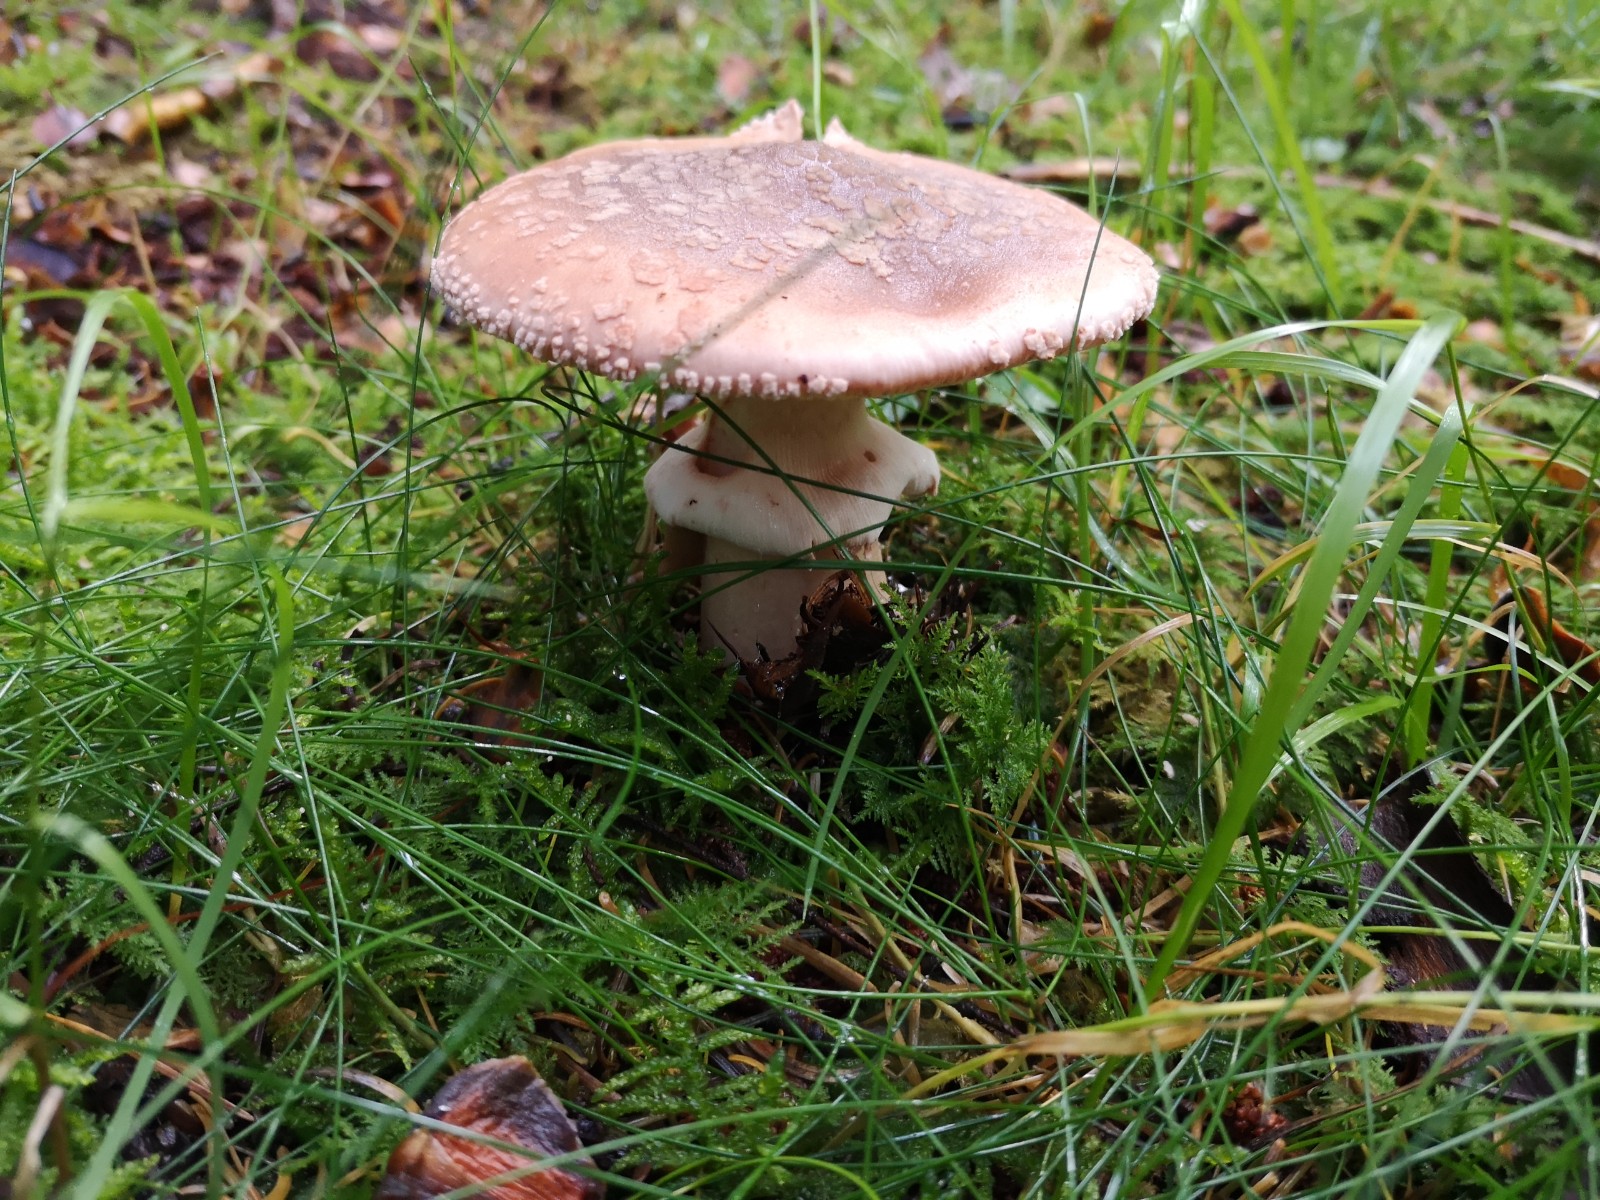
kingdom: Fungi
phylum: Basidiomycota
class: Agaricomycetes
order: Agaricales
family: Amanitaceae
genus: Amanita
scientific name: Amanita rubescens
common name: rødmende fluesvamp
